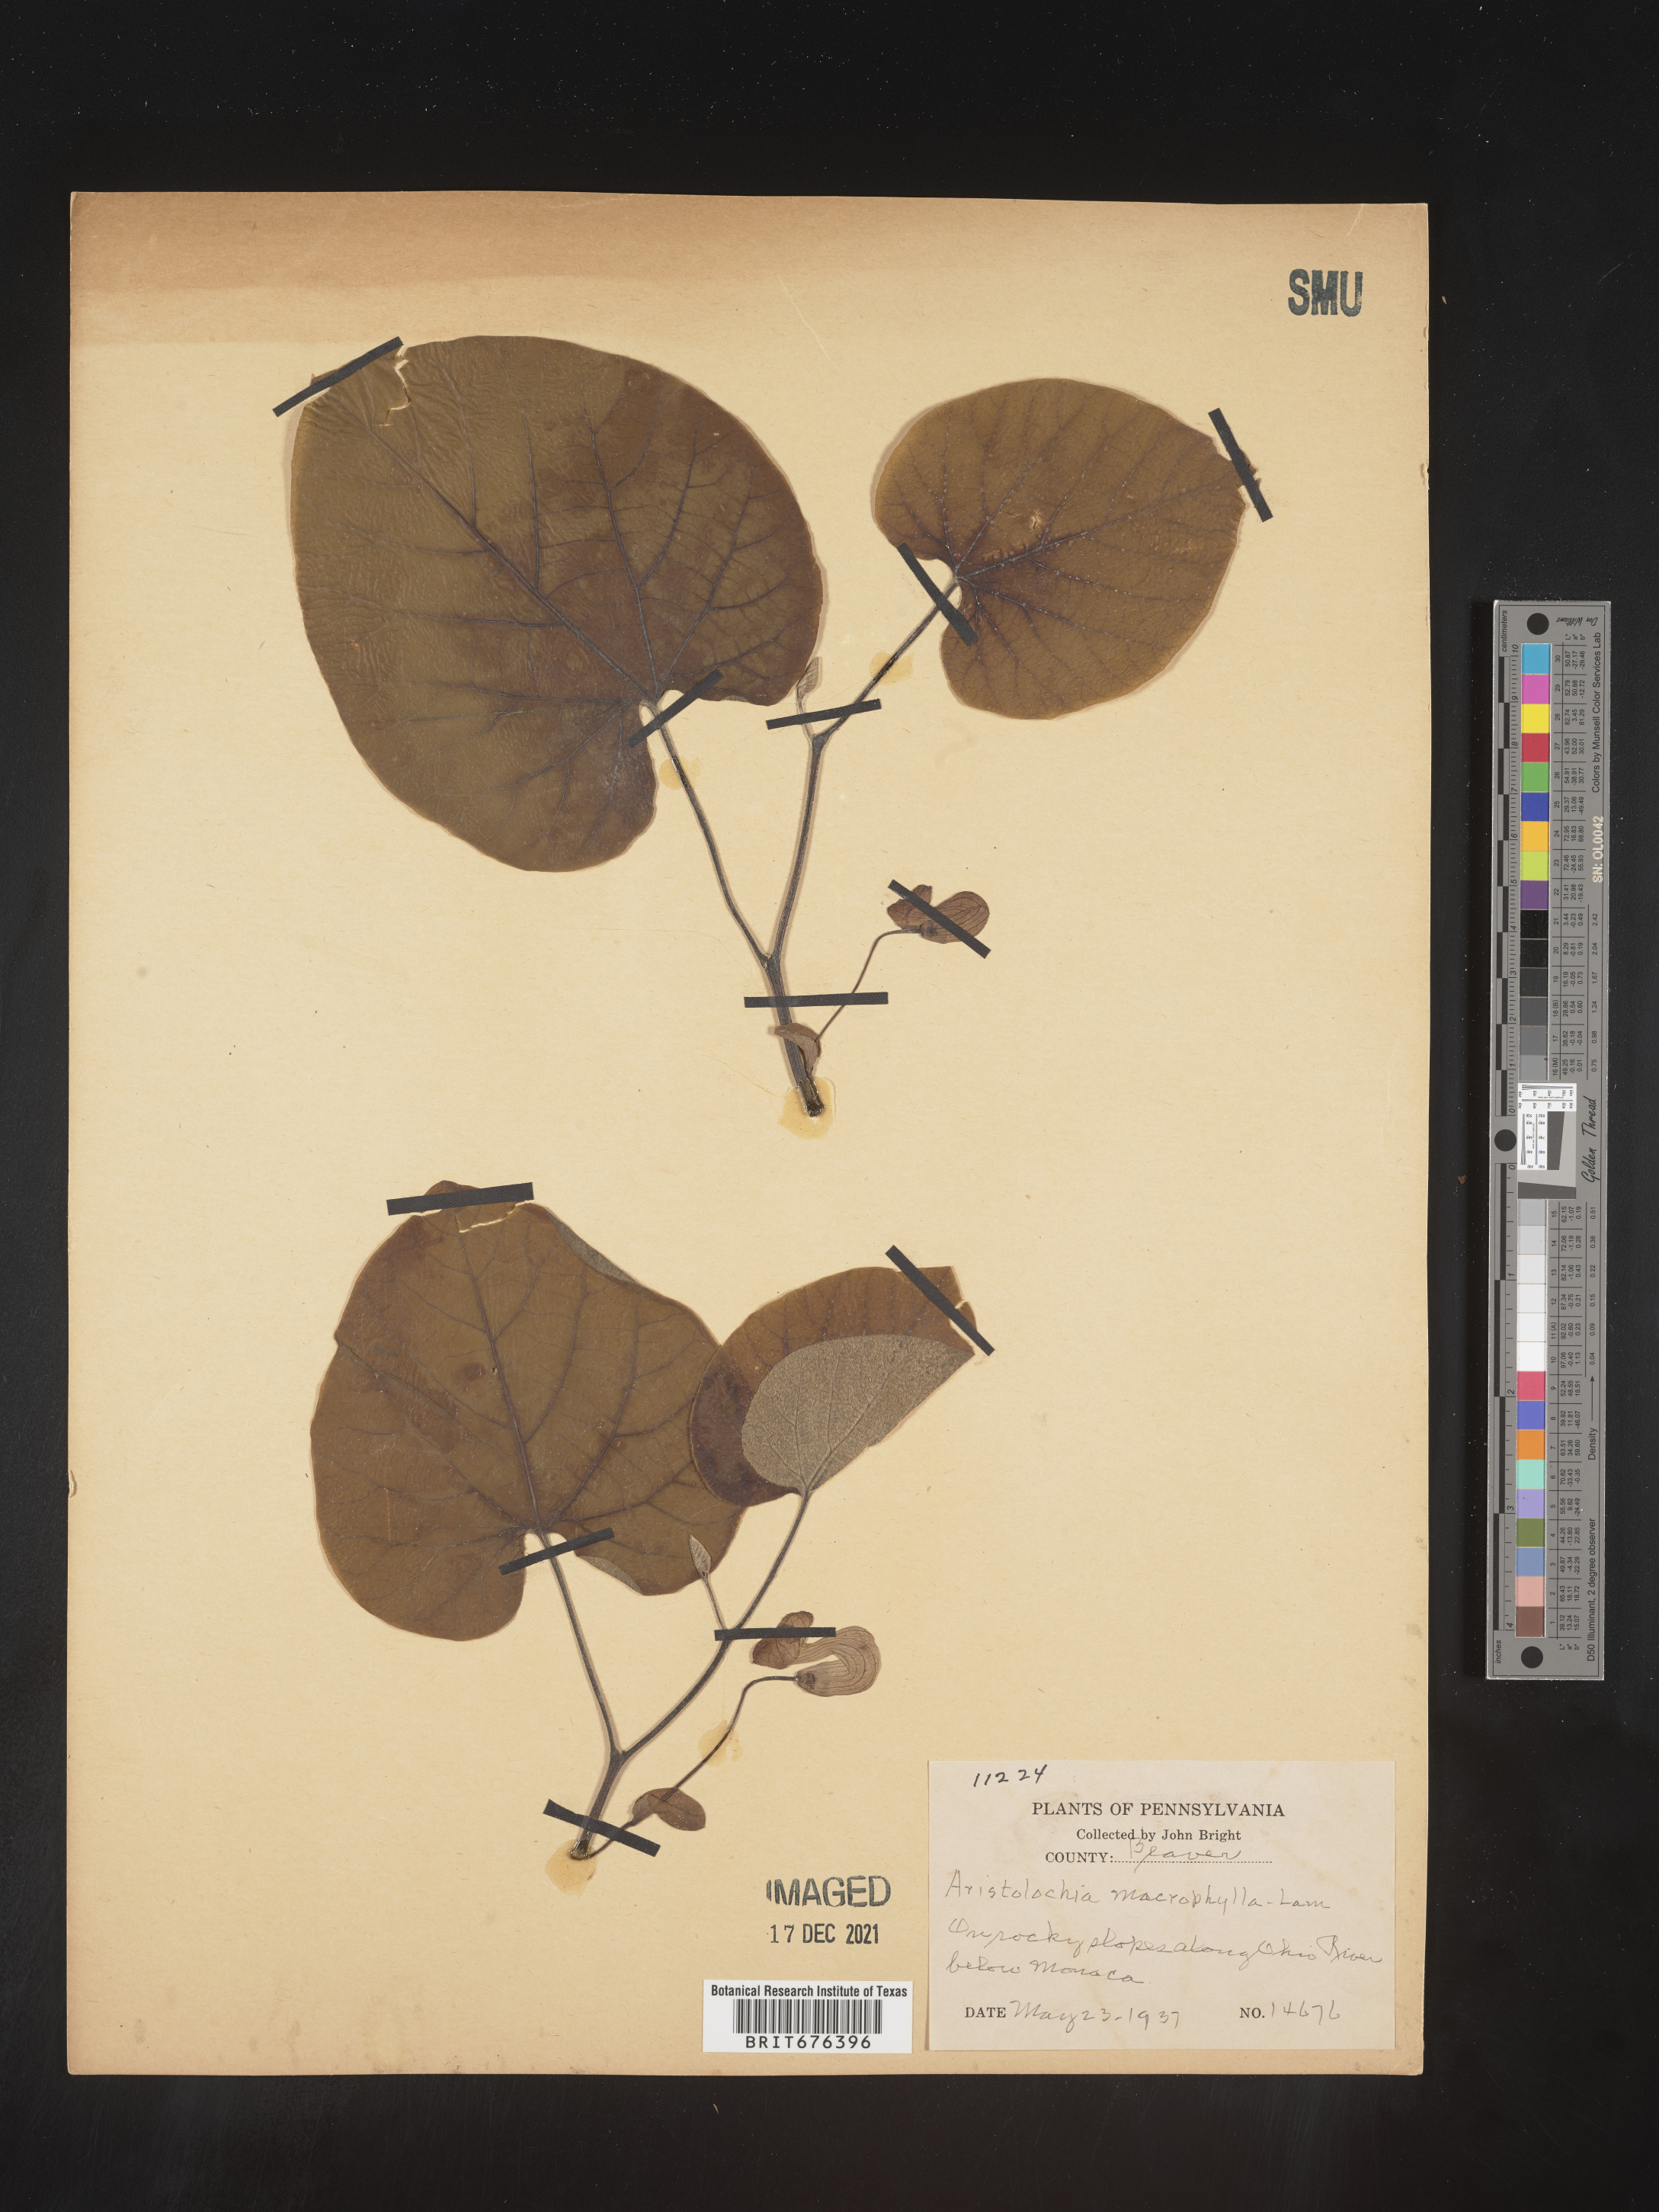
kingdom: Plantae
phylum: Tracheophyta
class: Magnoliopsida
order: Piperales
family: Aristolochiaceae
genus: Isotrema
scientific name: Isotrema macrophyllum
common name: Dutchman's-pipe
